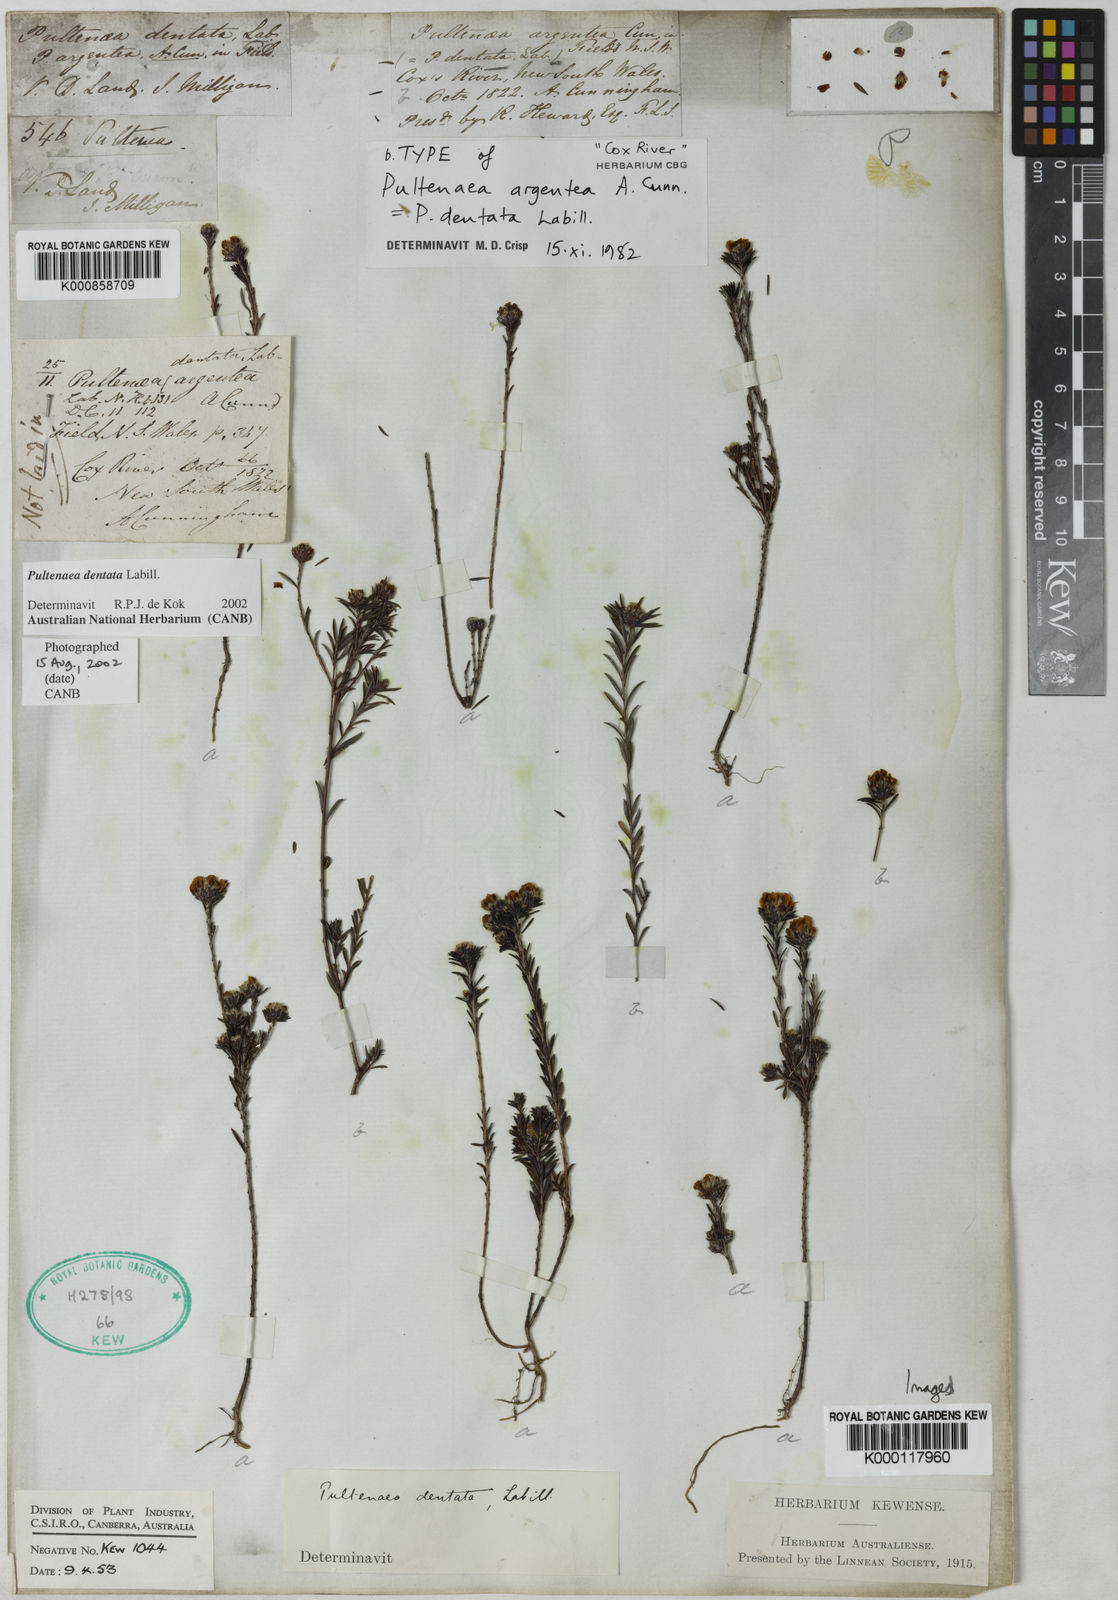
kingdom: Plantae
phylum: Tracheophyta
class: Magnoliopsida
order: Fabales
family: Fabaceae
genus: Pultenaea
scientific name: Pultenaea dentata
